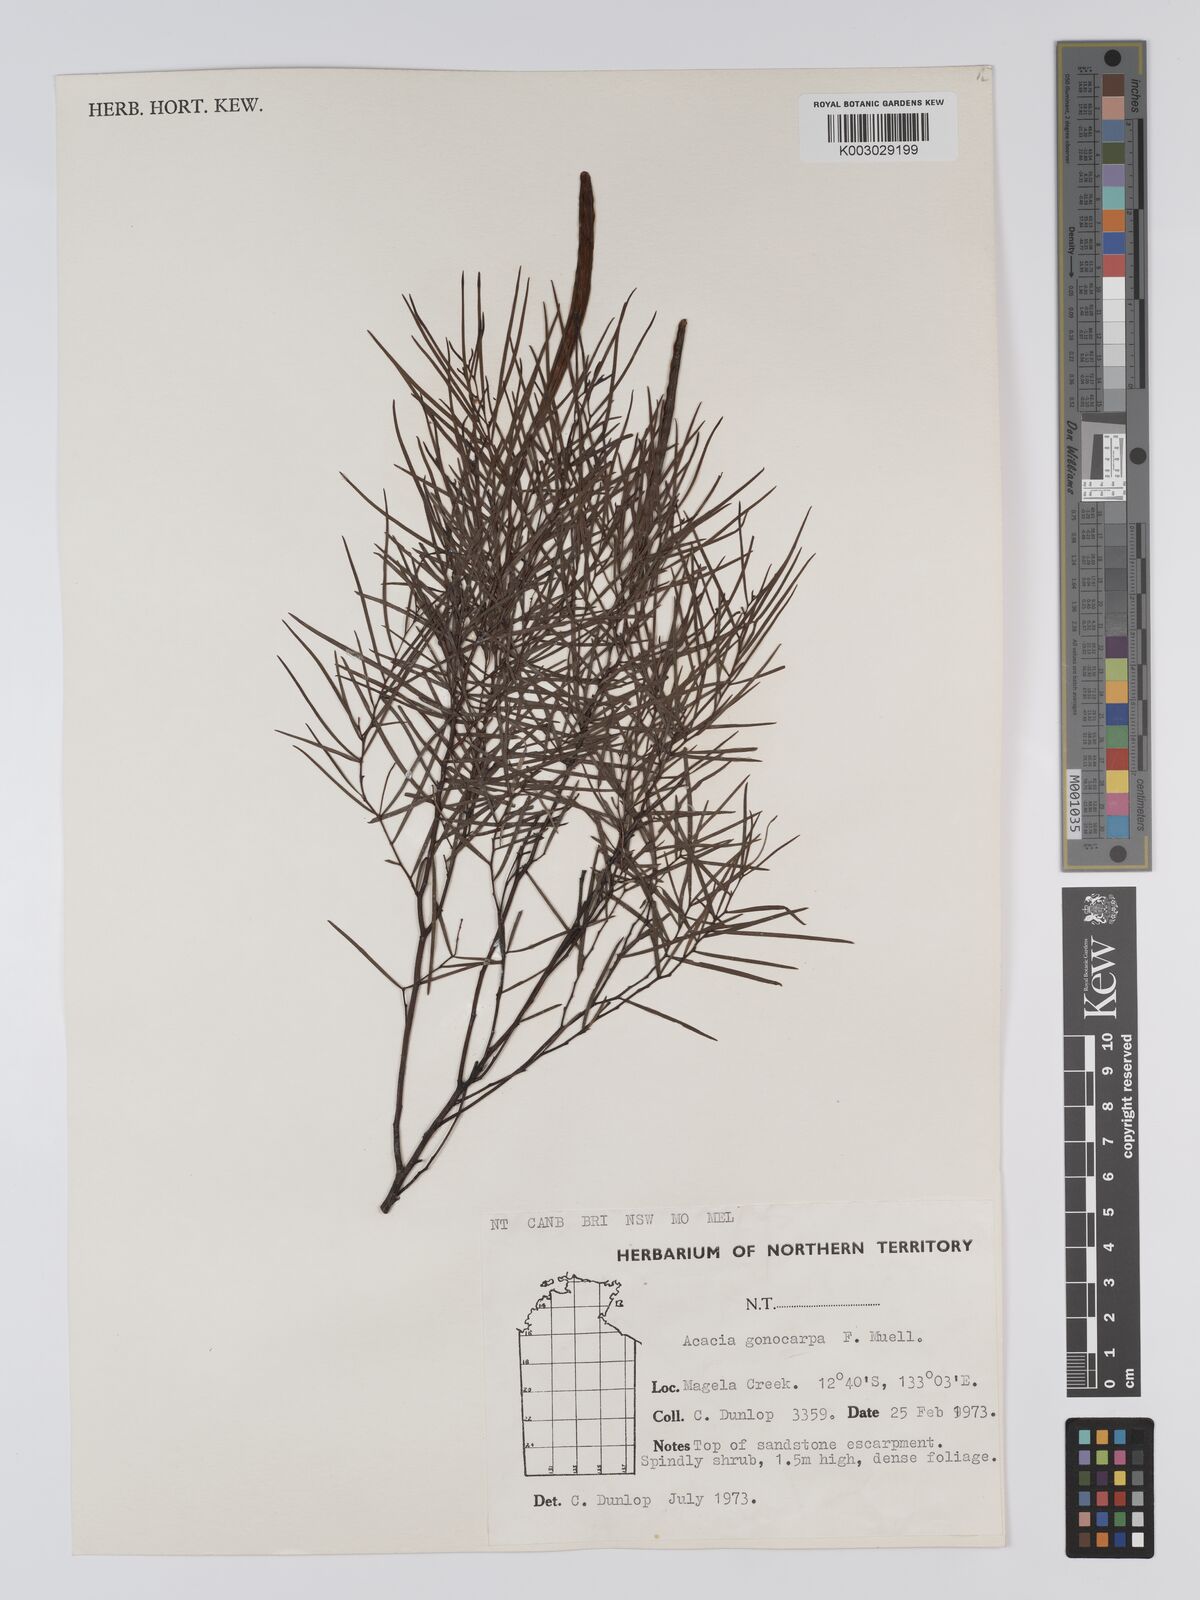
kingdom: Plantae
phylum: Tracheophyta
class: Magnoliopsida
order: Fabales
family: Fabaceae
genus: Acacia
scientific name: Acacia gonocarpa
